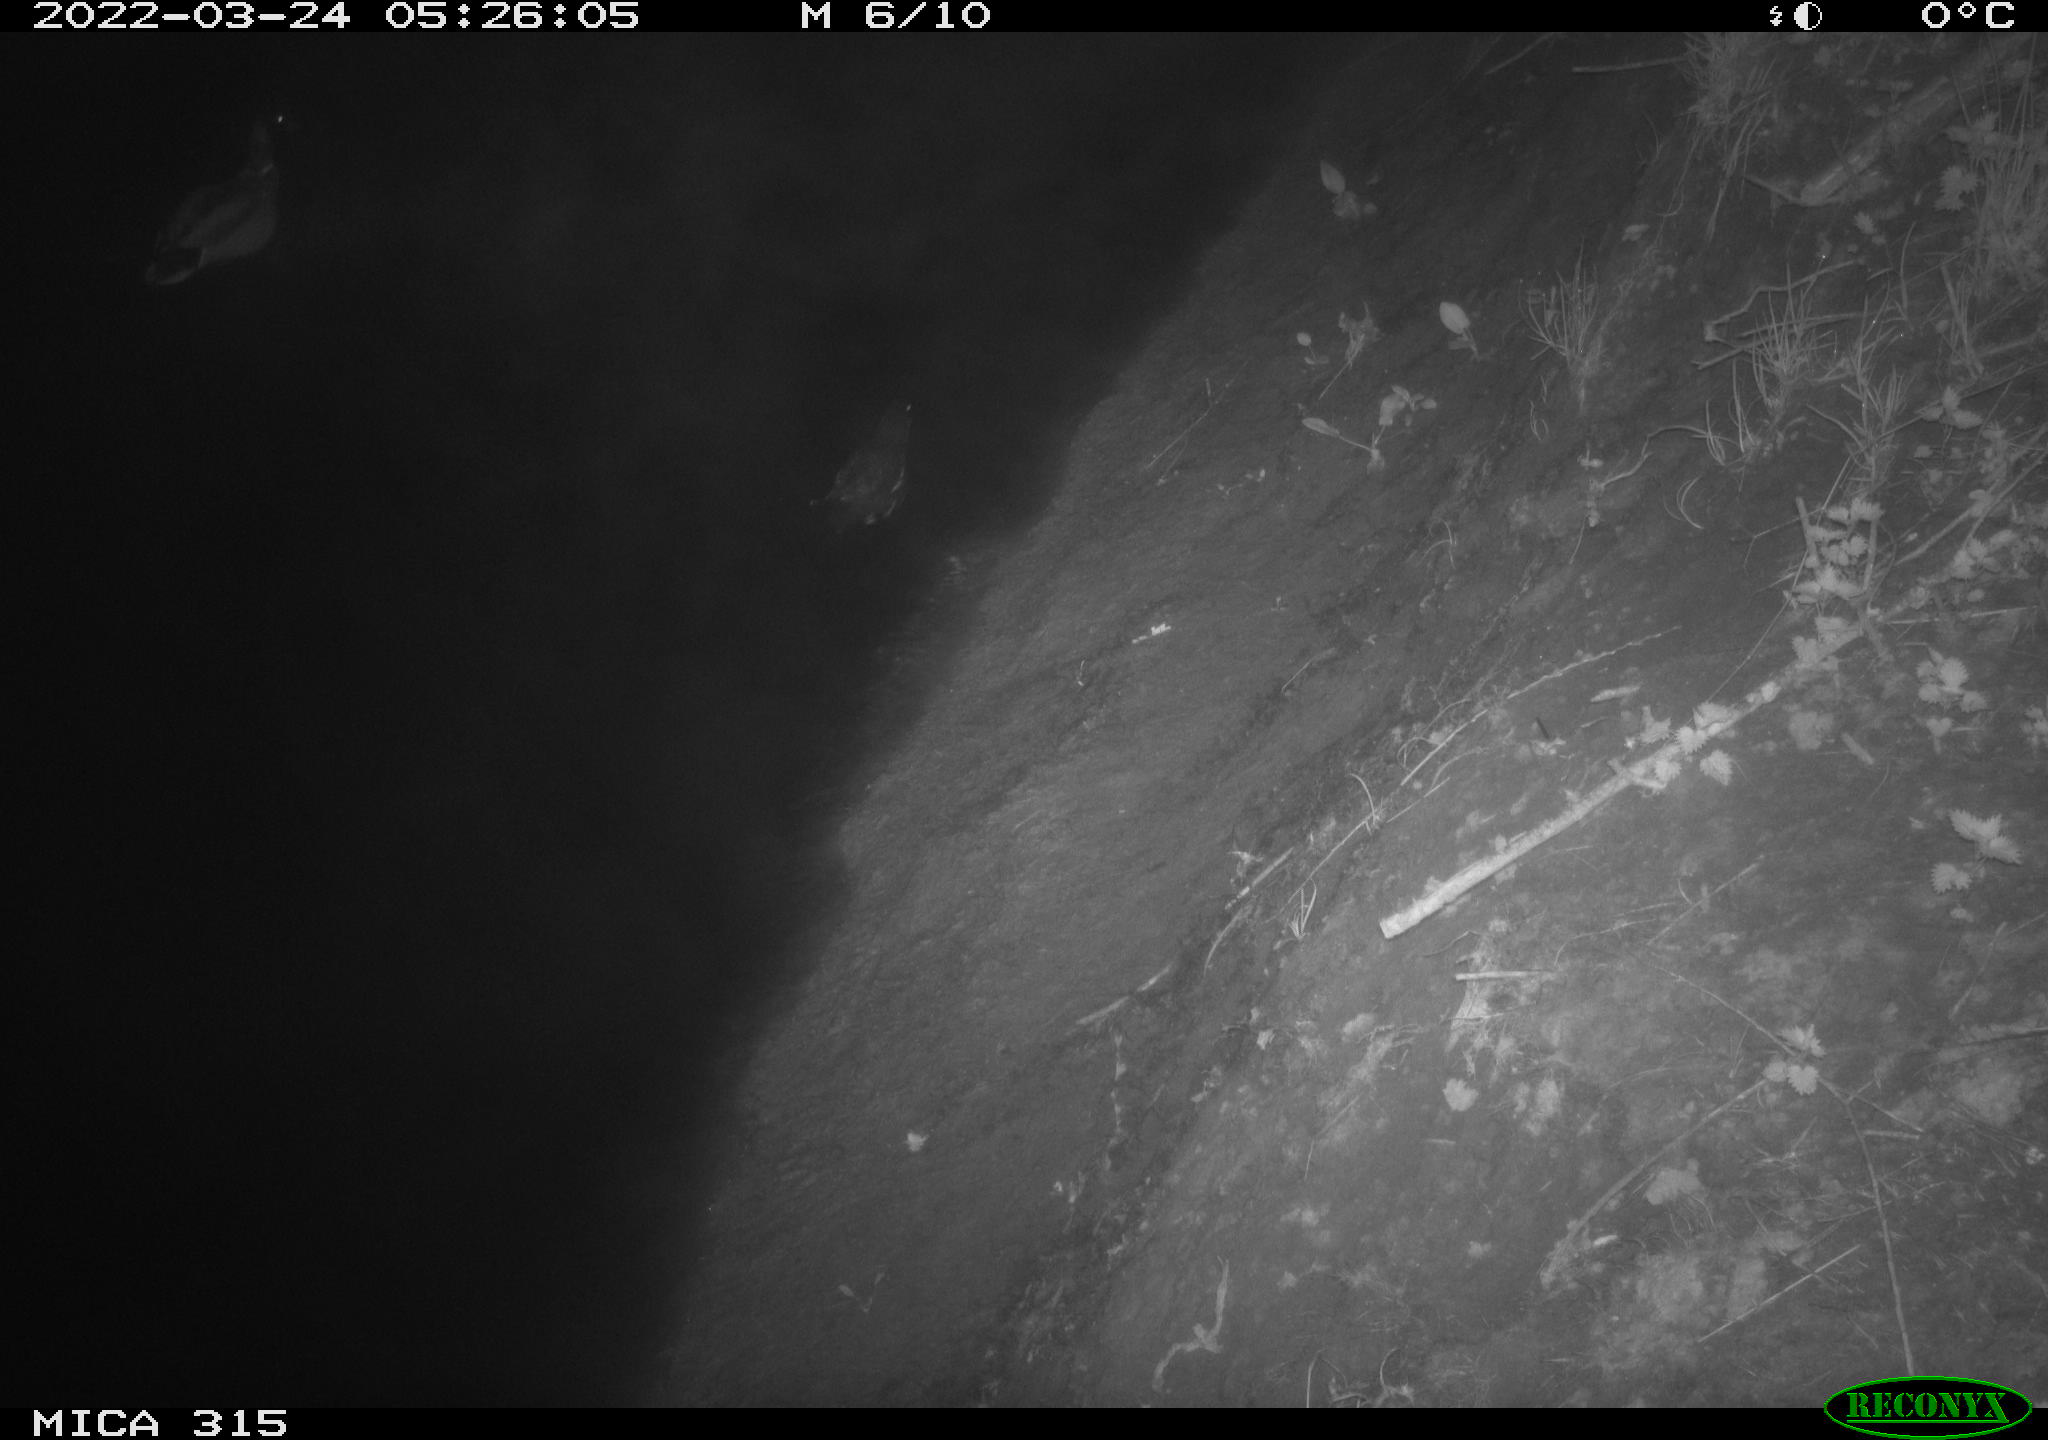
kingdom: Animalia
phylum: Chordata
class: Aves
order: Gruiformes
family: Rallidae
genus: Gallinula
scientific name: Gallinula chloropus
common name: Common moorhen
